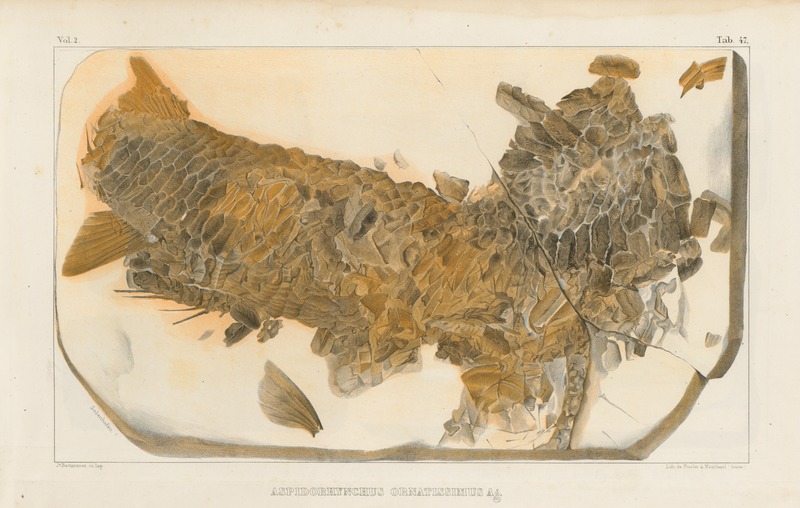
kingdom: Animalia
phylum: Chordata
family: Aspidorhynchidae
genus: Aspidorhynchus
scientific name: Aspidorhynchus ornatissimus
